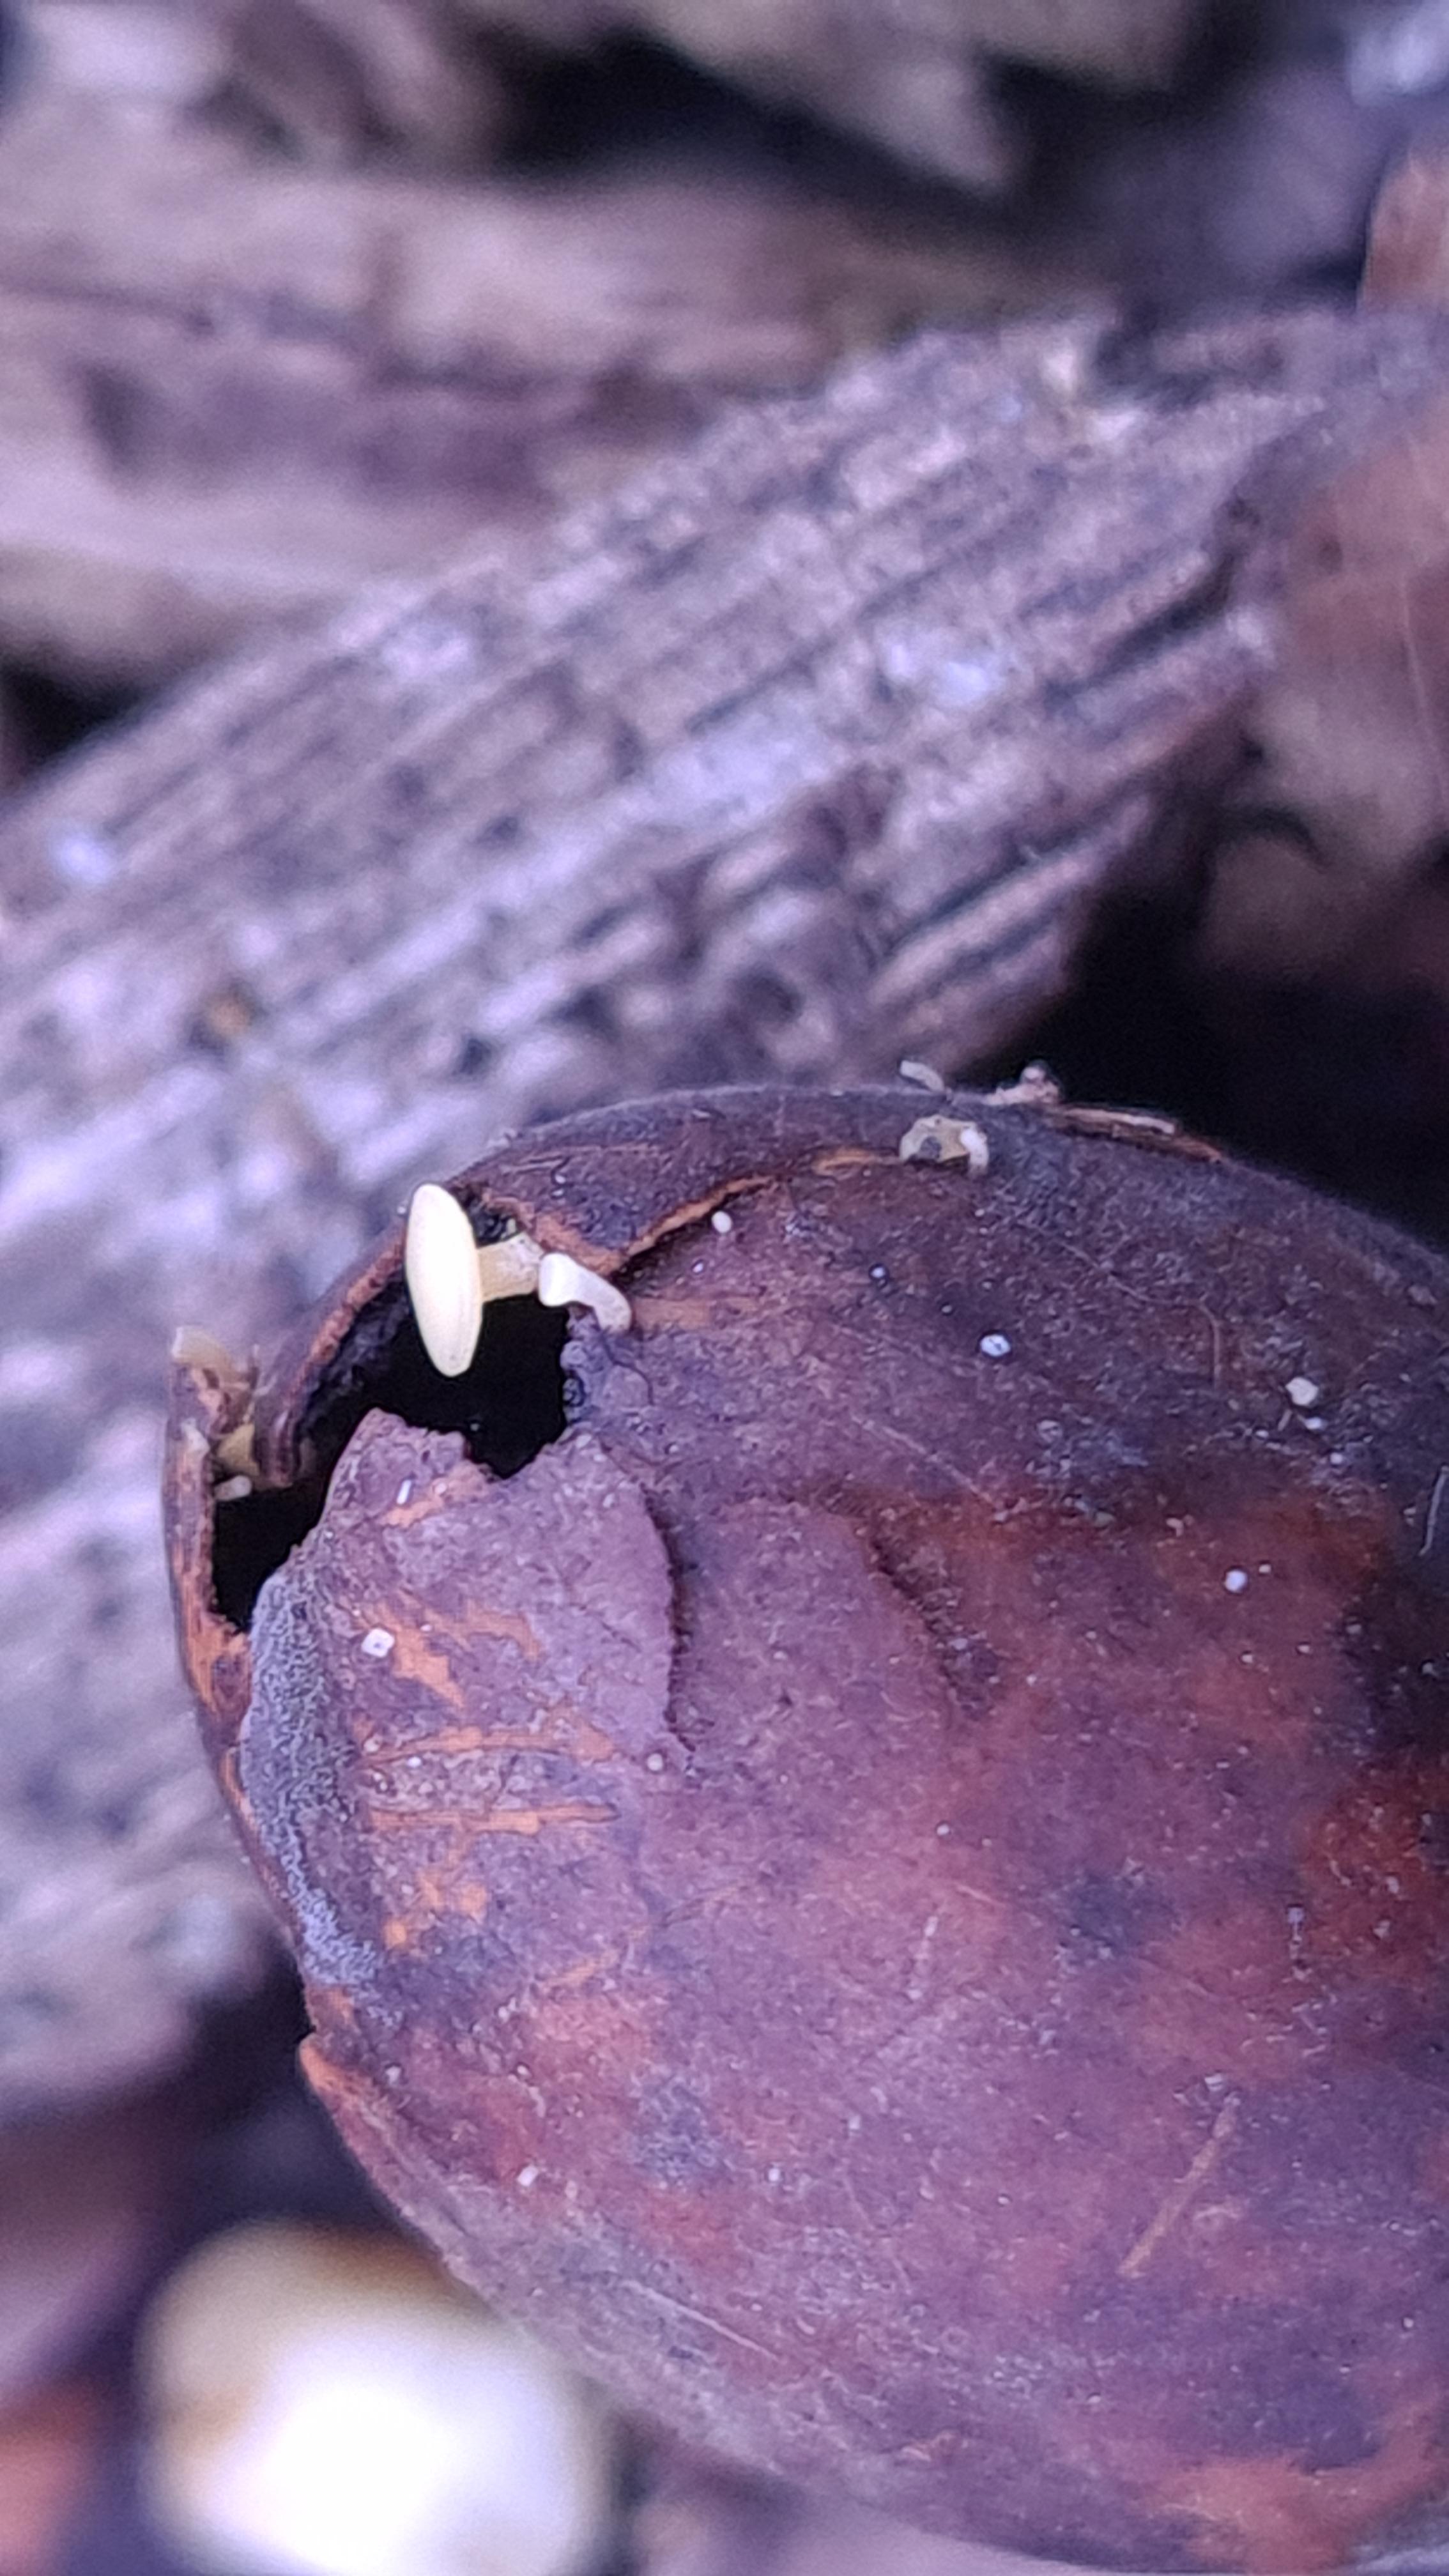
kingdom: Fungi
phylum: Ascomycota
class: Leotiomycetes
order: Helotiales
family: Helotiaceae
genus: Hymenoscyphus
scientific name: Hymenoscyphus fructigenus
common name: frugt-stilkskive
